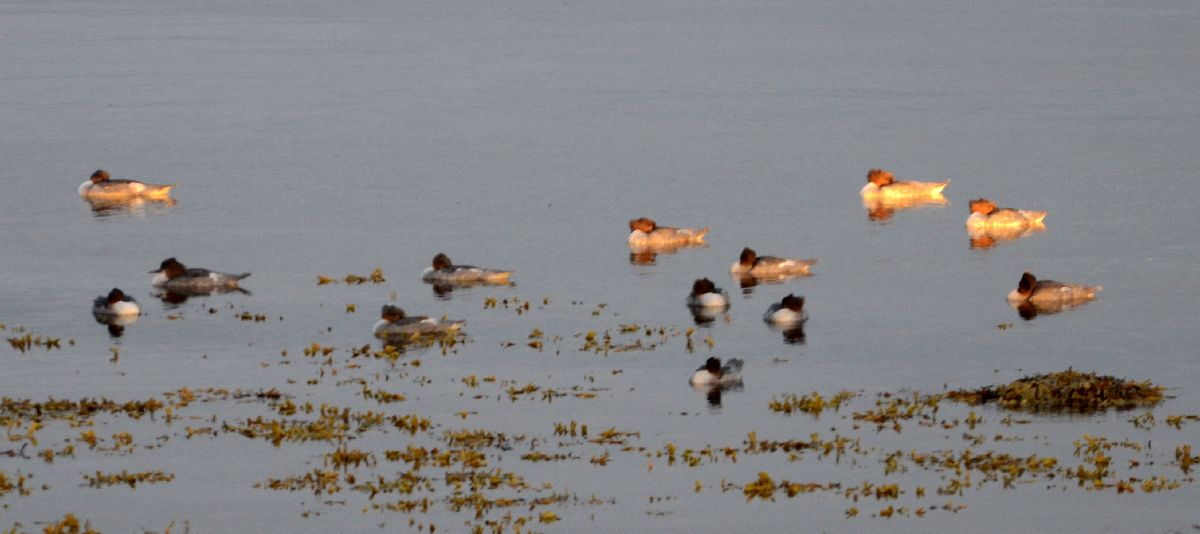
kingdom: Animalia
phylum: Chordata
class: Aves
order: Anseriformes
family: Anatidae
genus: Mergus
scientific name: Mergus merganser
